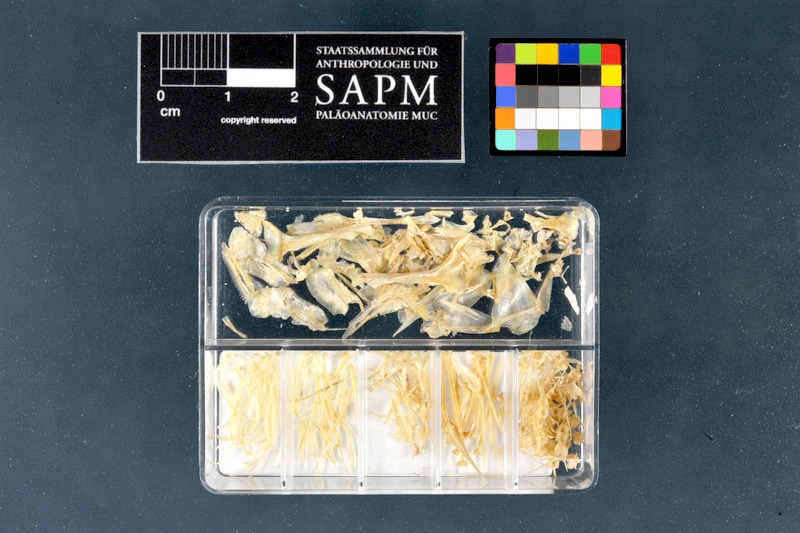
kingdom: Animalia
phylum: Chordata
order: Perciformes
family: Percidae
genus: Perca
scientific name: Perca fluviatilis
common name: Perch
